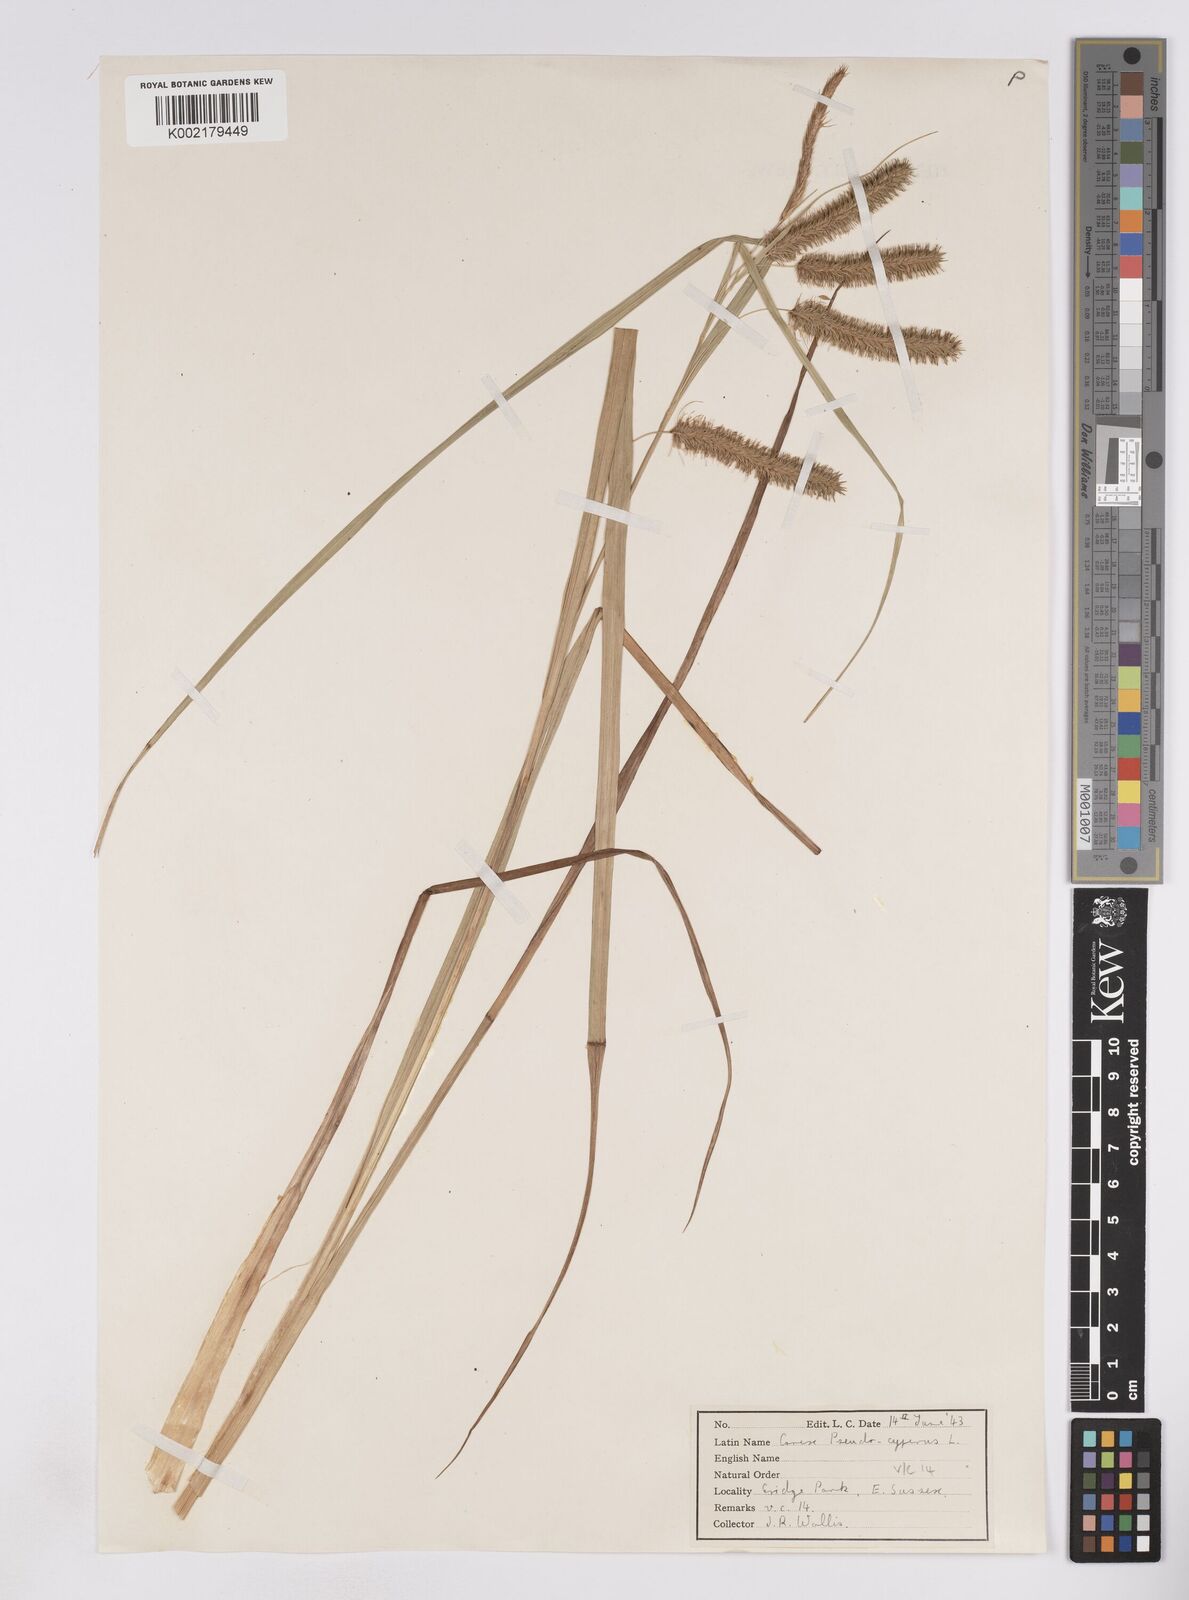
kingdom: Plantae
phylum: Tracheophyta
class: Liliopsida
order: Poales
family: Cyperaceae
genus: Carex
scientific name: Carex pseudocyperus
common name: Cyperus sedge
